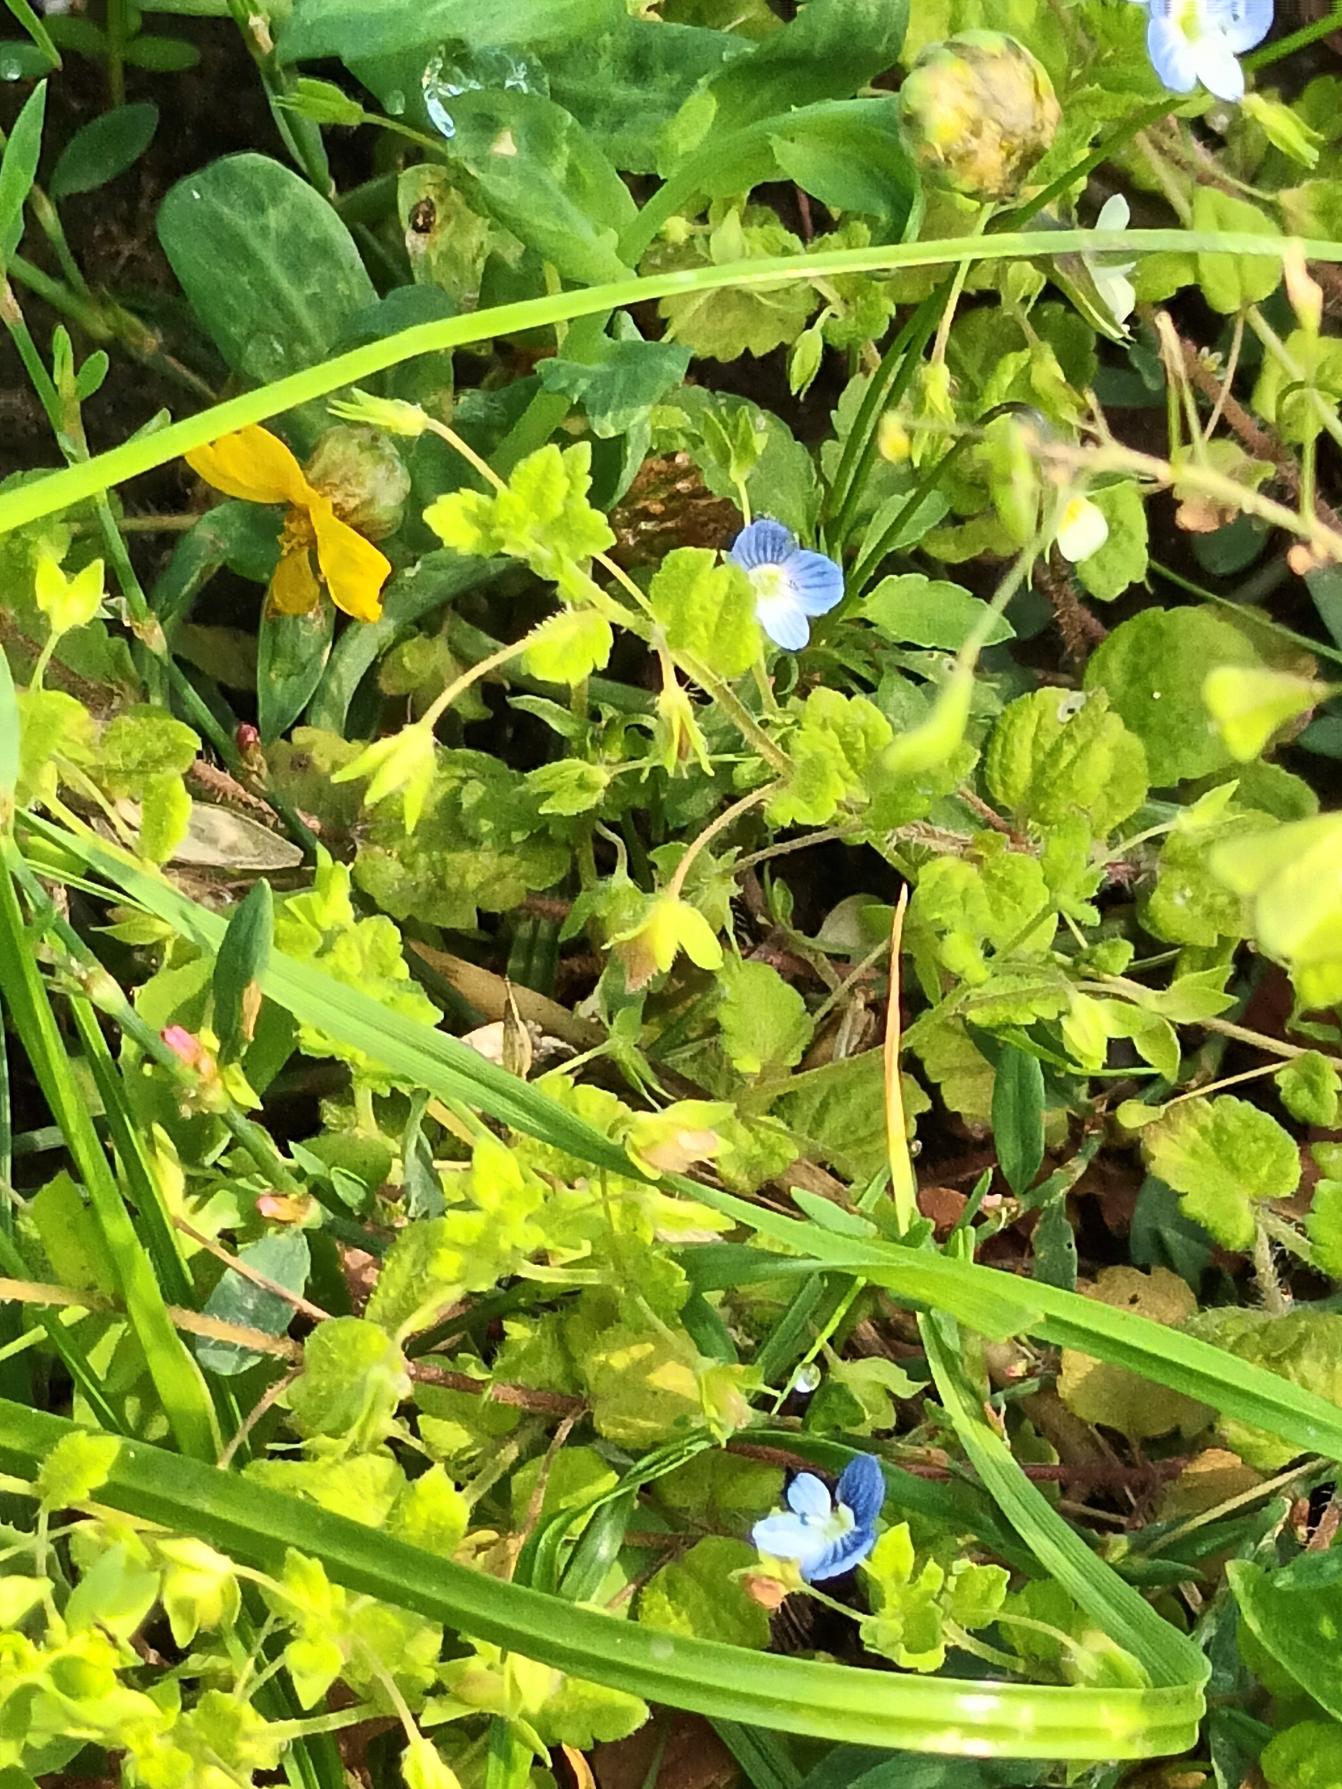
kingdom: Plantae
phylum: Tracheophyta
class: Magnoliopsida
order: Lamiales
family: Plantaginaceae
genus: Veronica
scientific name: Veronica persica
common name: Storkronet ærenpris
